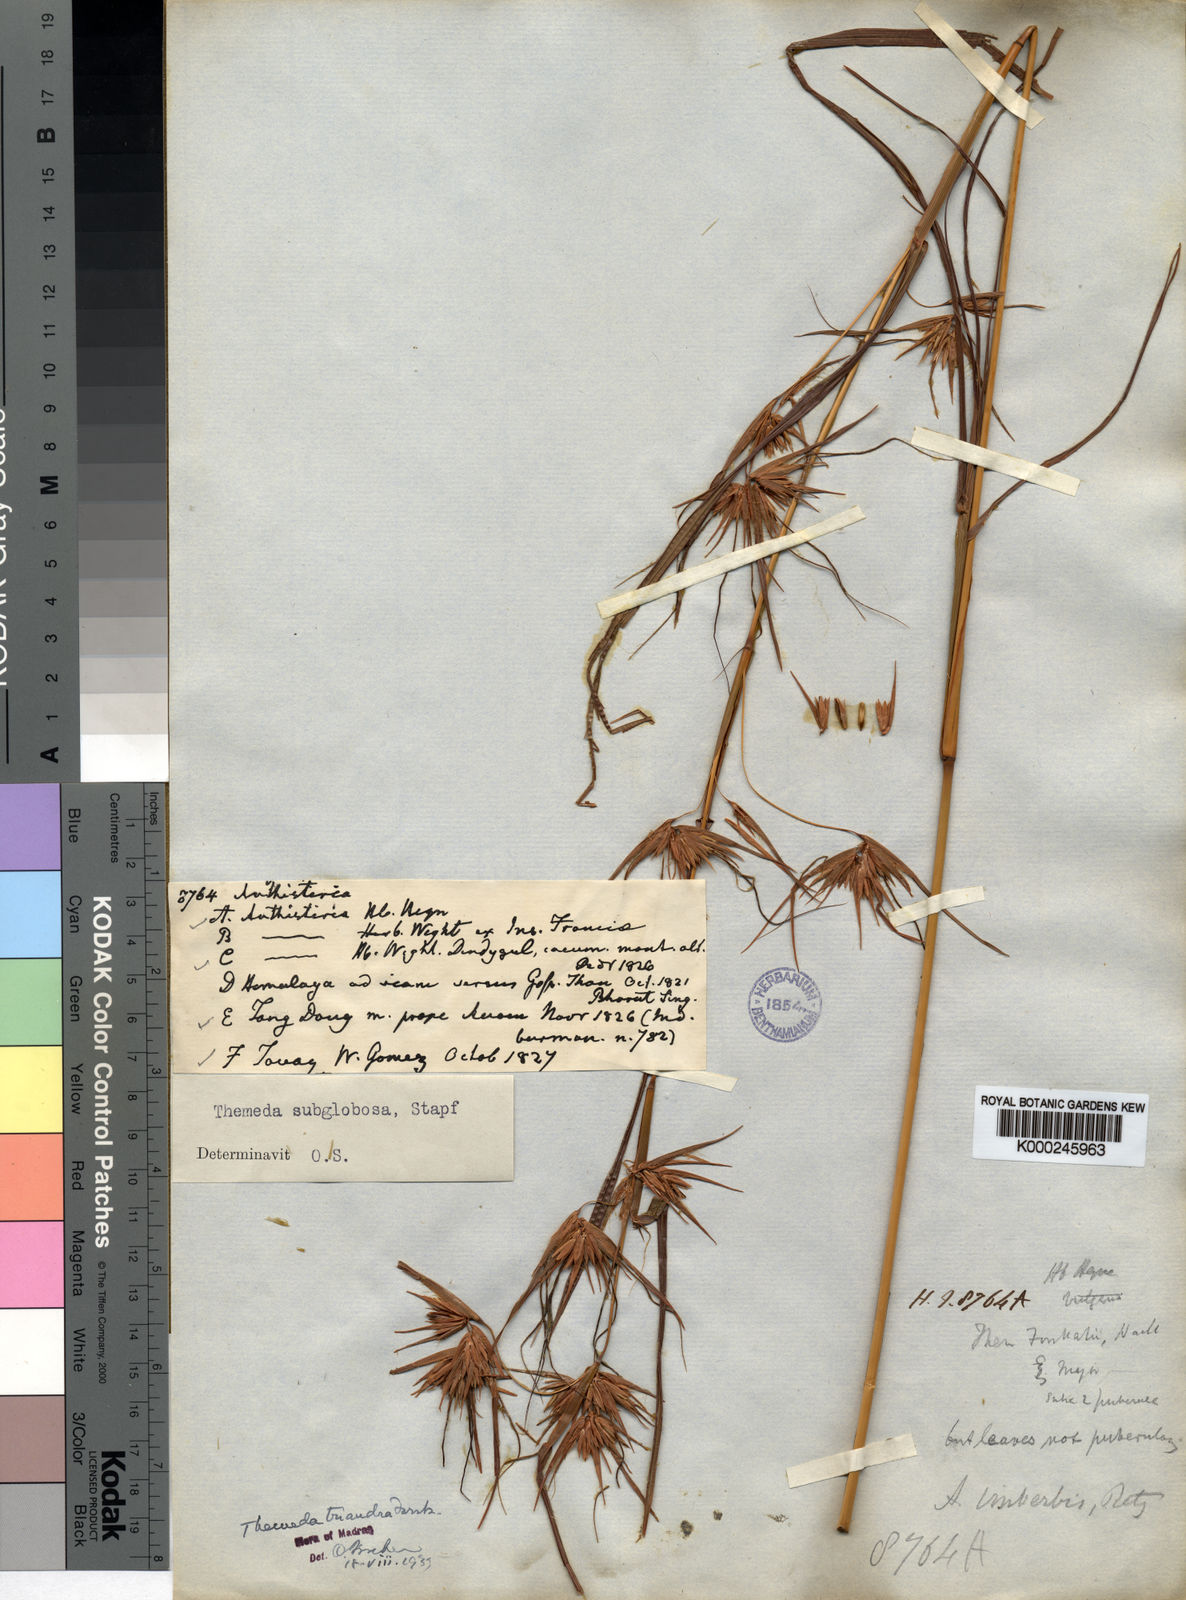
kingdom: Plantae
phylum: Tracheophyta
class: Liliopsida
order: Poales
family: Poaceae
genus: Themeda
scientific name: Themeda triandra
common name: Kangaroo grass
